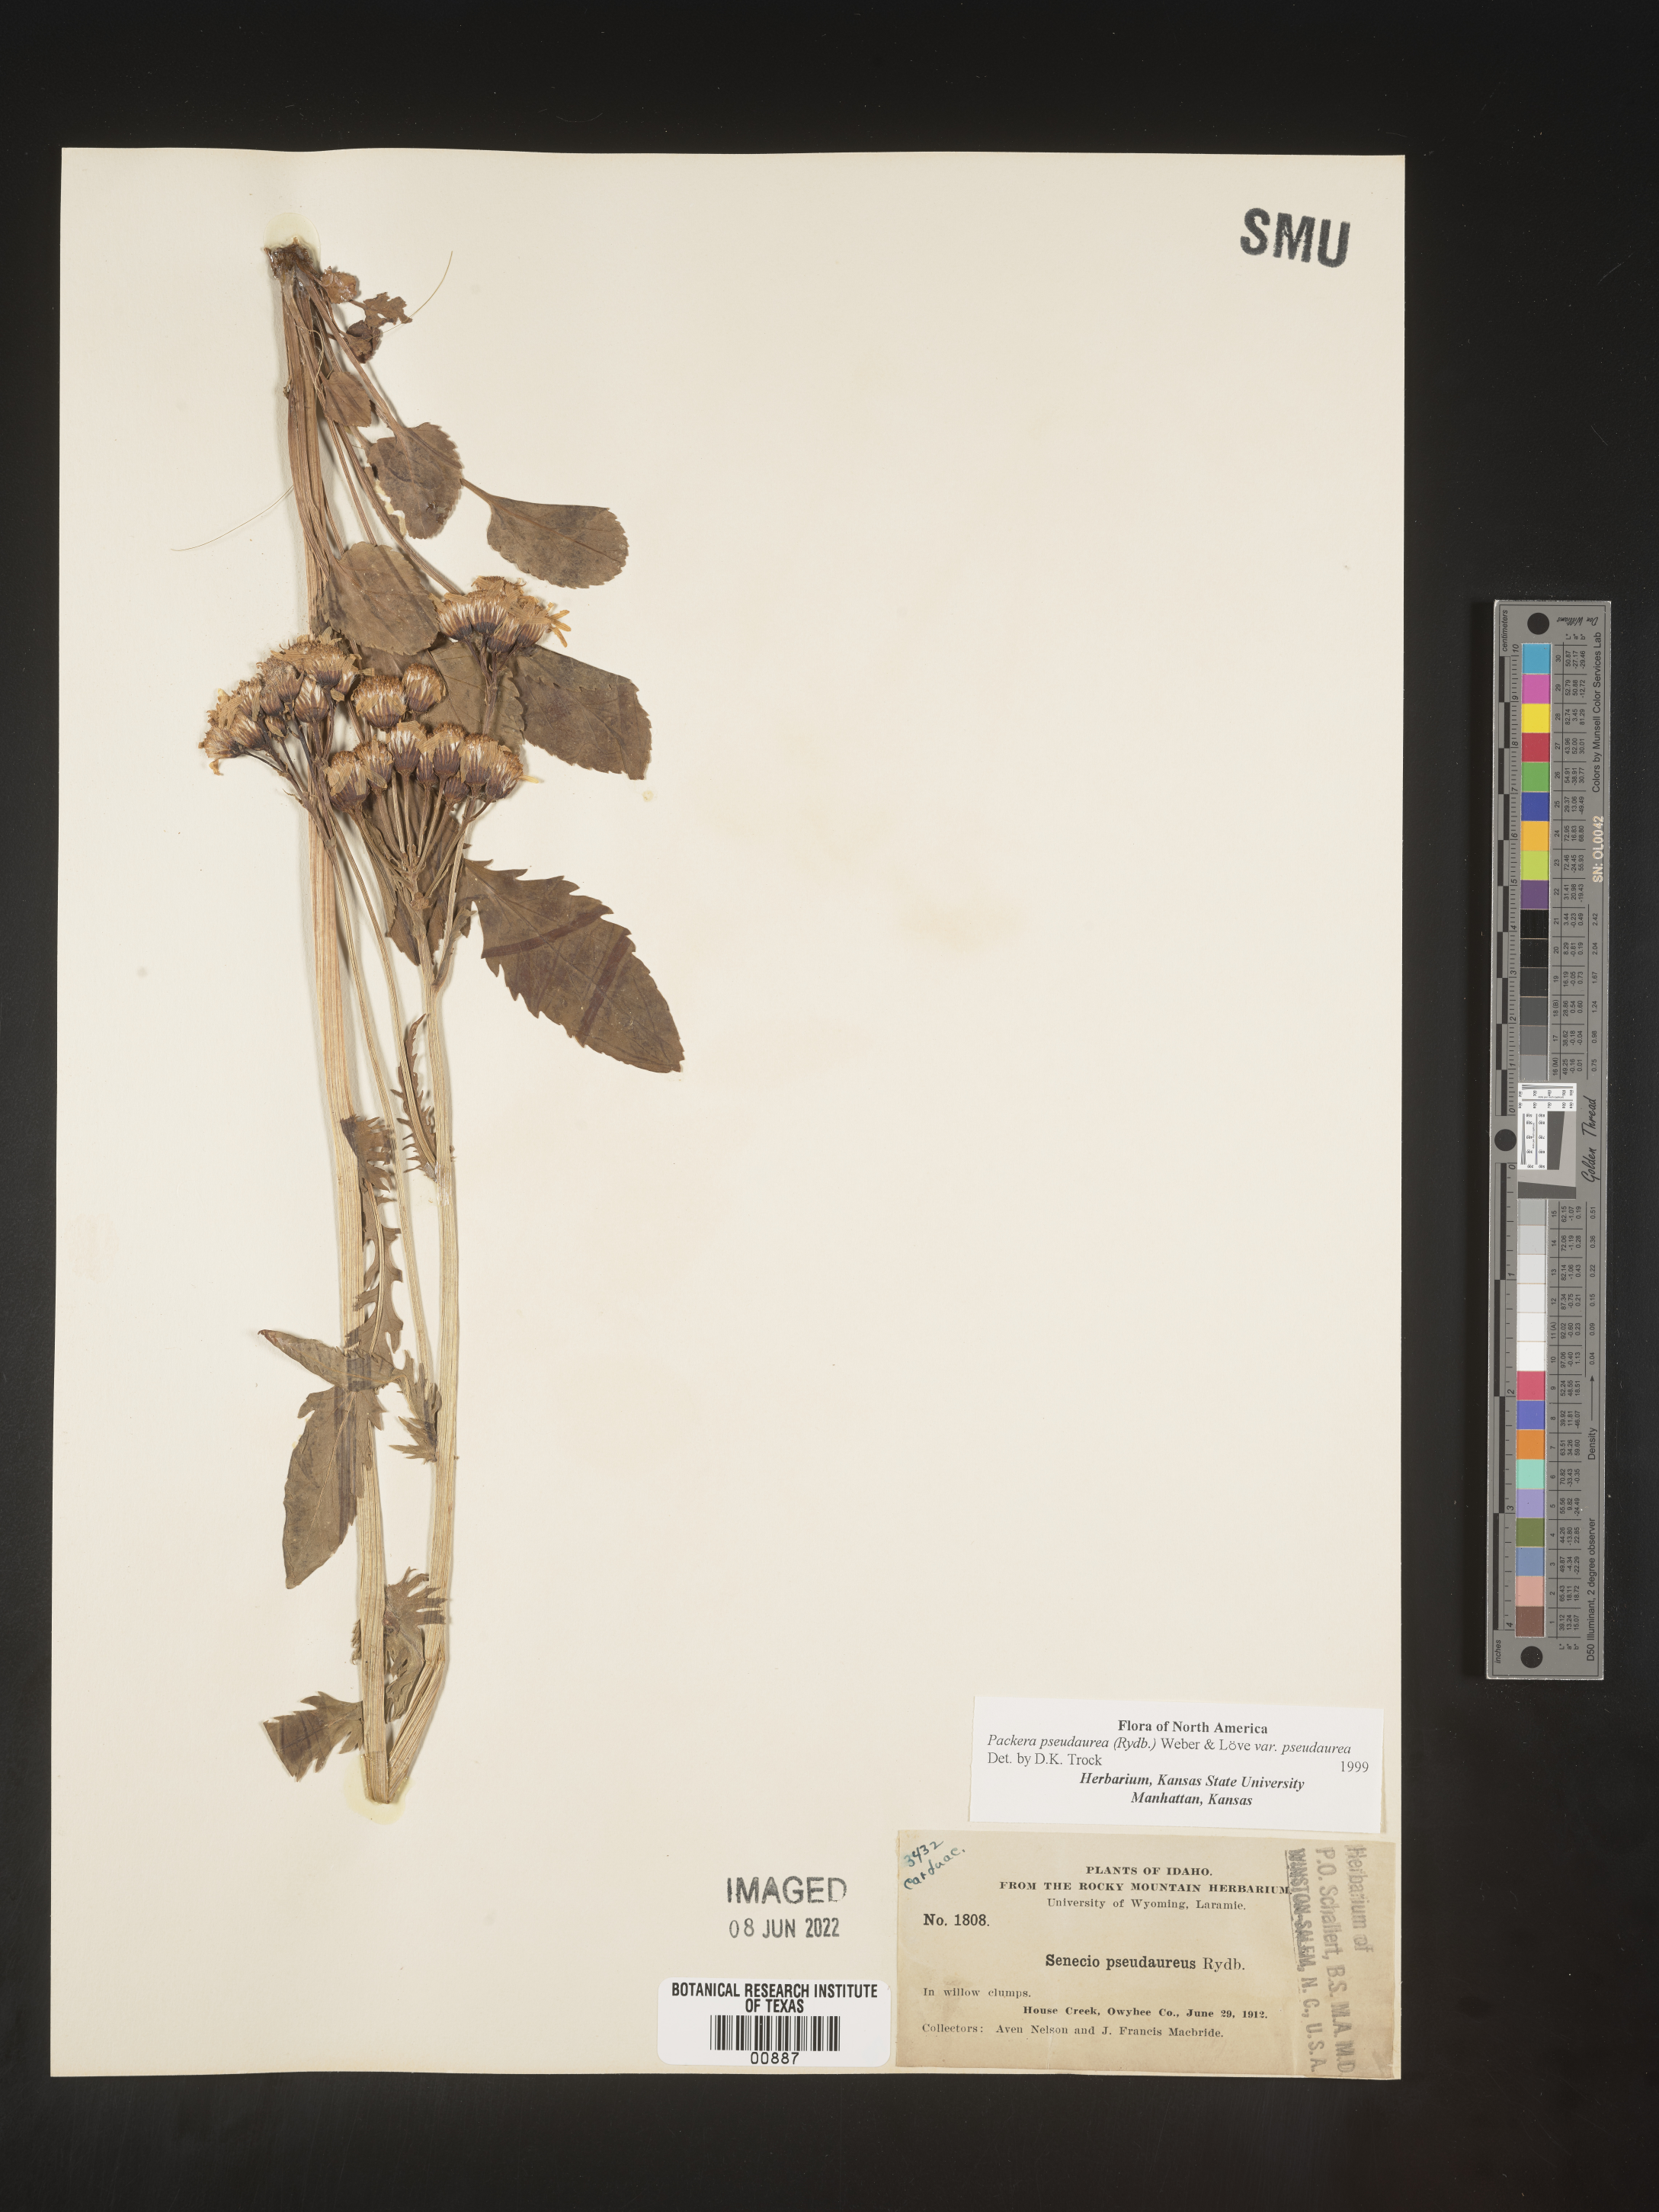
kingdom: Plantae
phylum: Tracheophyta
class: Magnoliopsida
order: Asterales
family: Asteraceae
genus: Packera
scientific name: Packera pseudaurea
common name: False-gold groundsel
